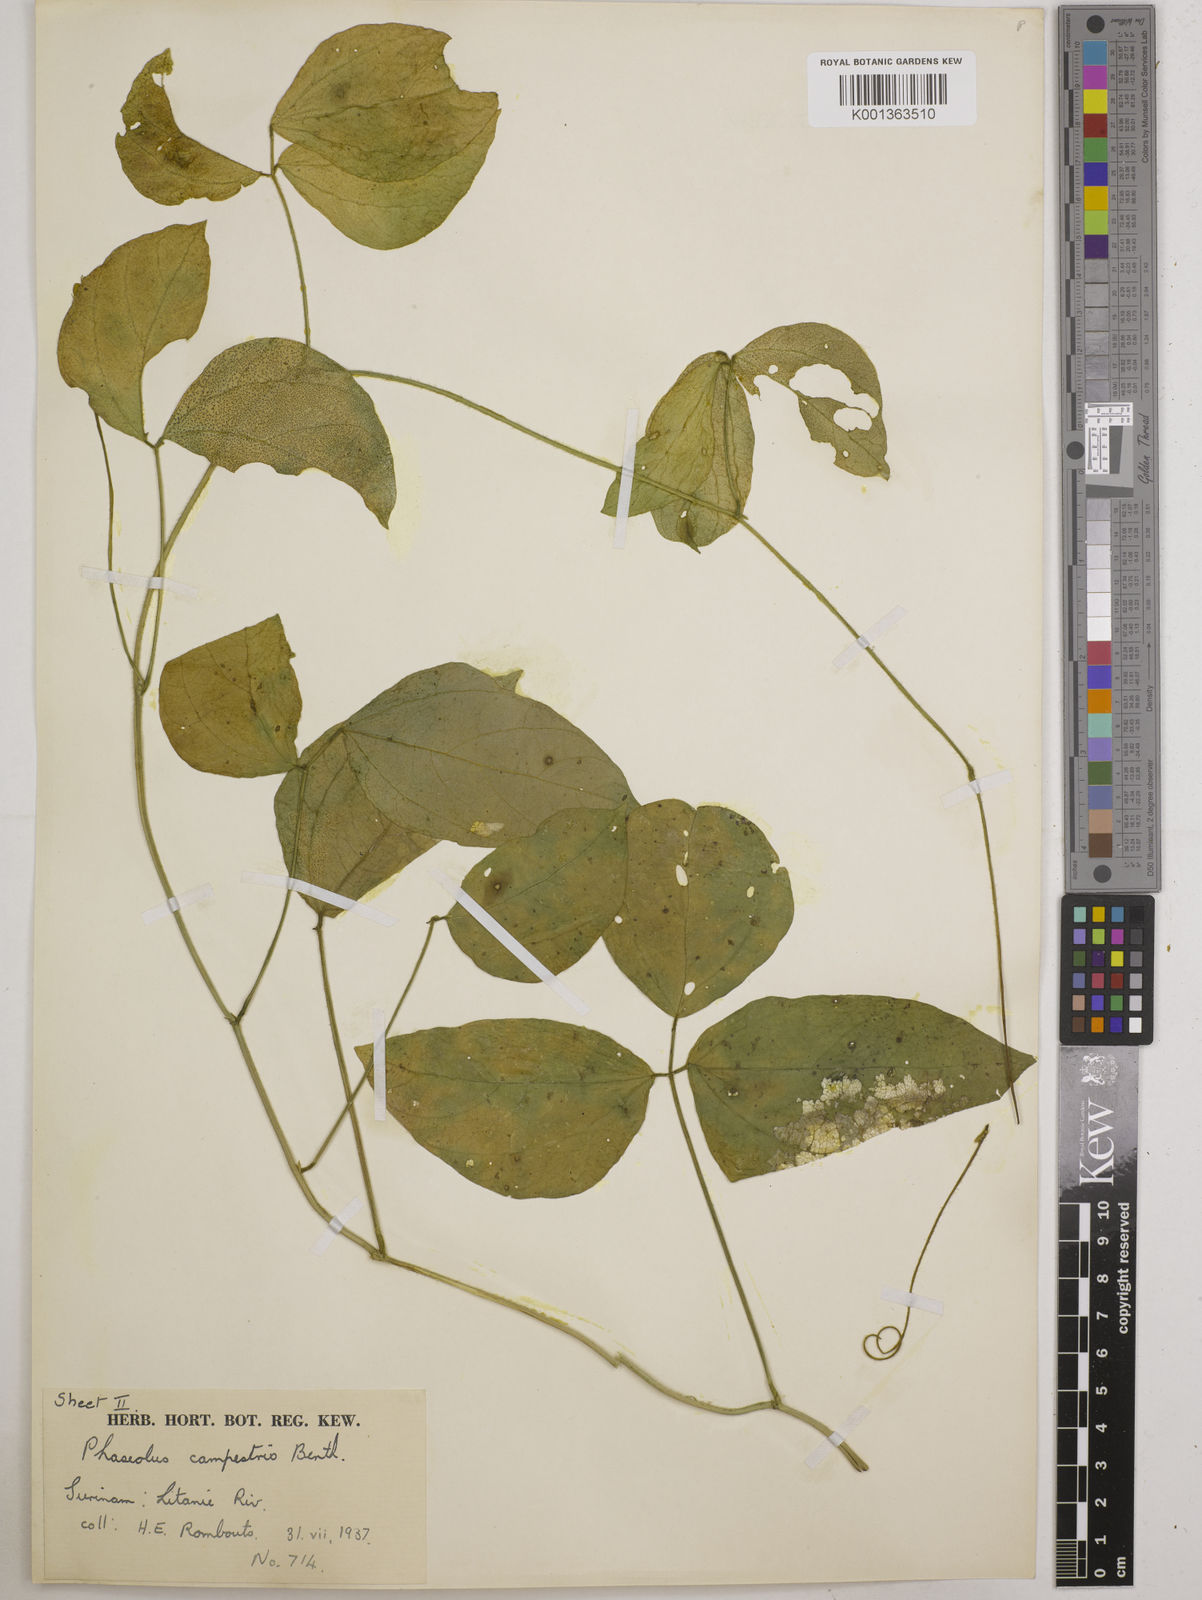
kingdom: Plantae
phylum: Tracheophyta
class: Magnoliopsida
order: Fabales
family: Fabaceae
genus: Vigna
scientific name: Vigna juruana
